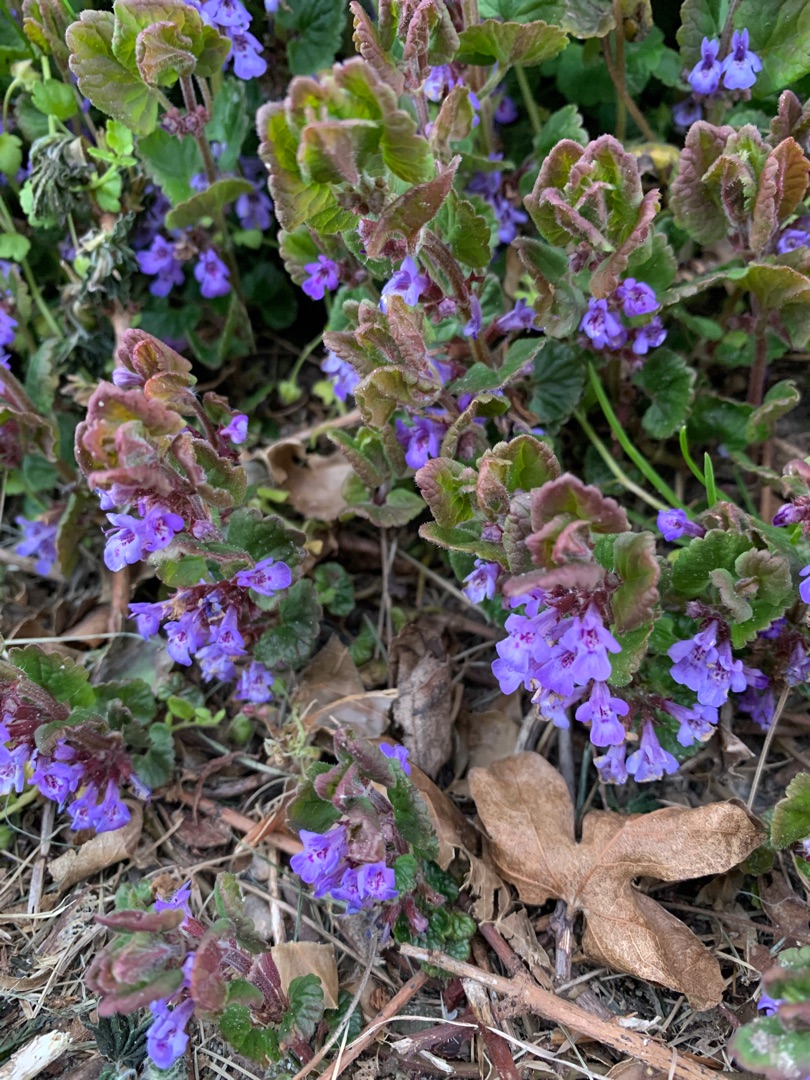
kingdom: Plantae
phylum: Tracheophyta
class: Magnoliopsida
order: Lamiales
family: Lamiaceae
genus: Glechoma
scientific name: Glechoma hederacea
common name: Korsknap
